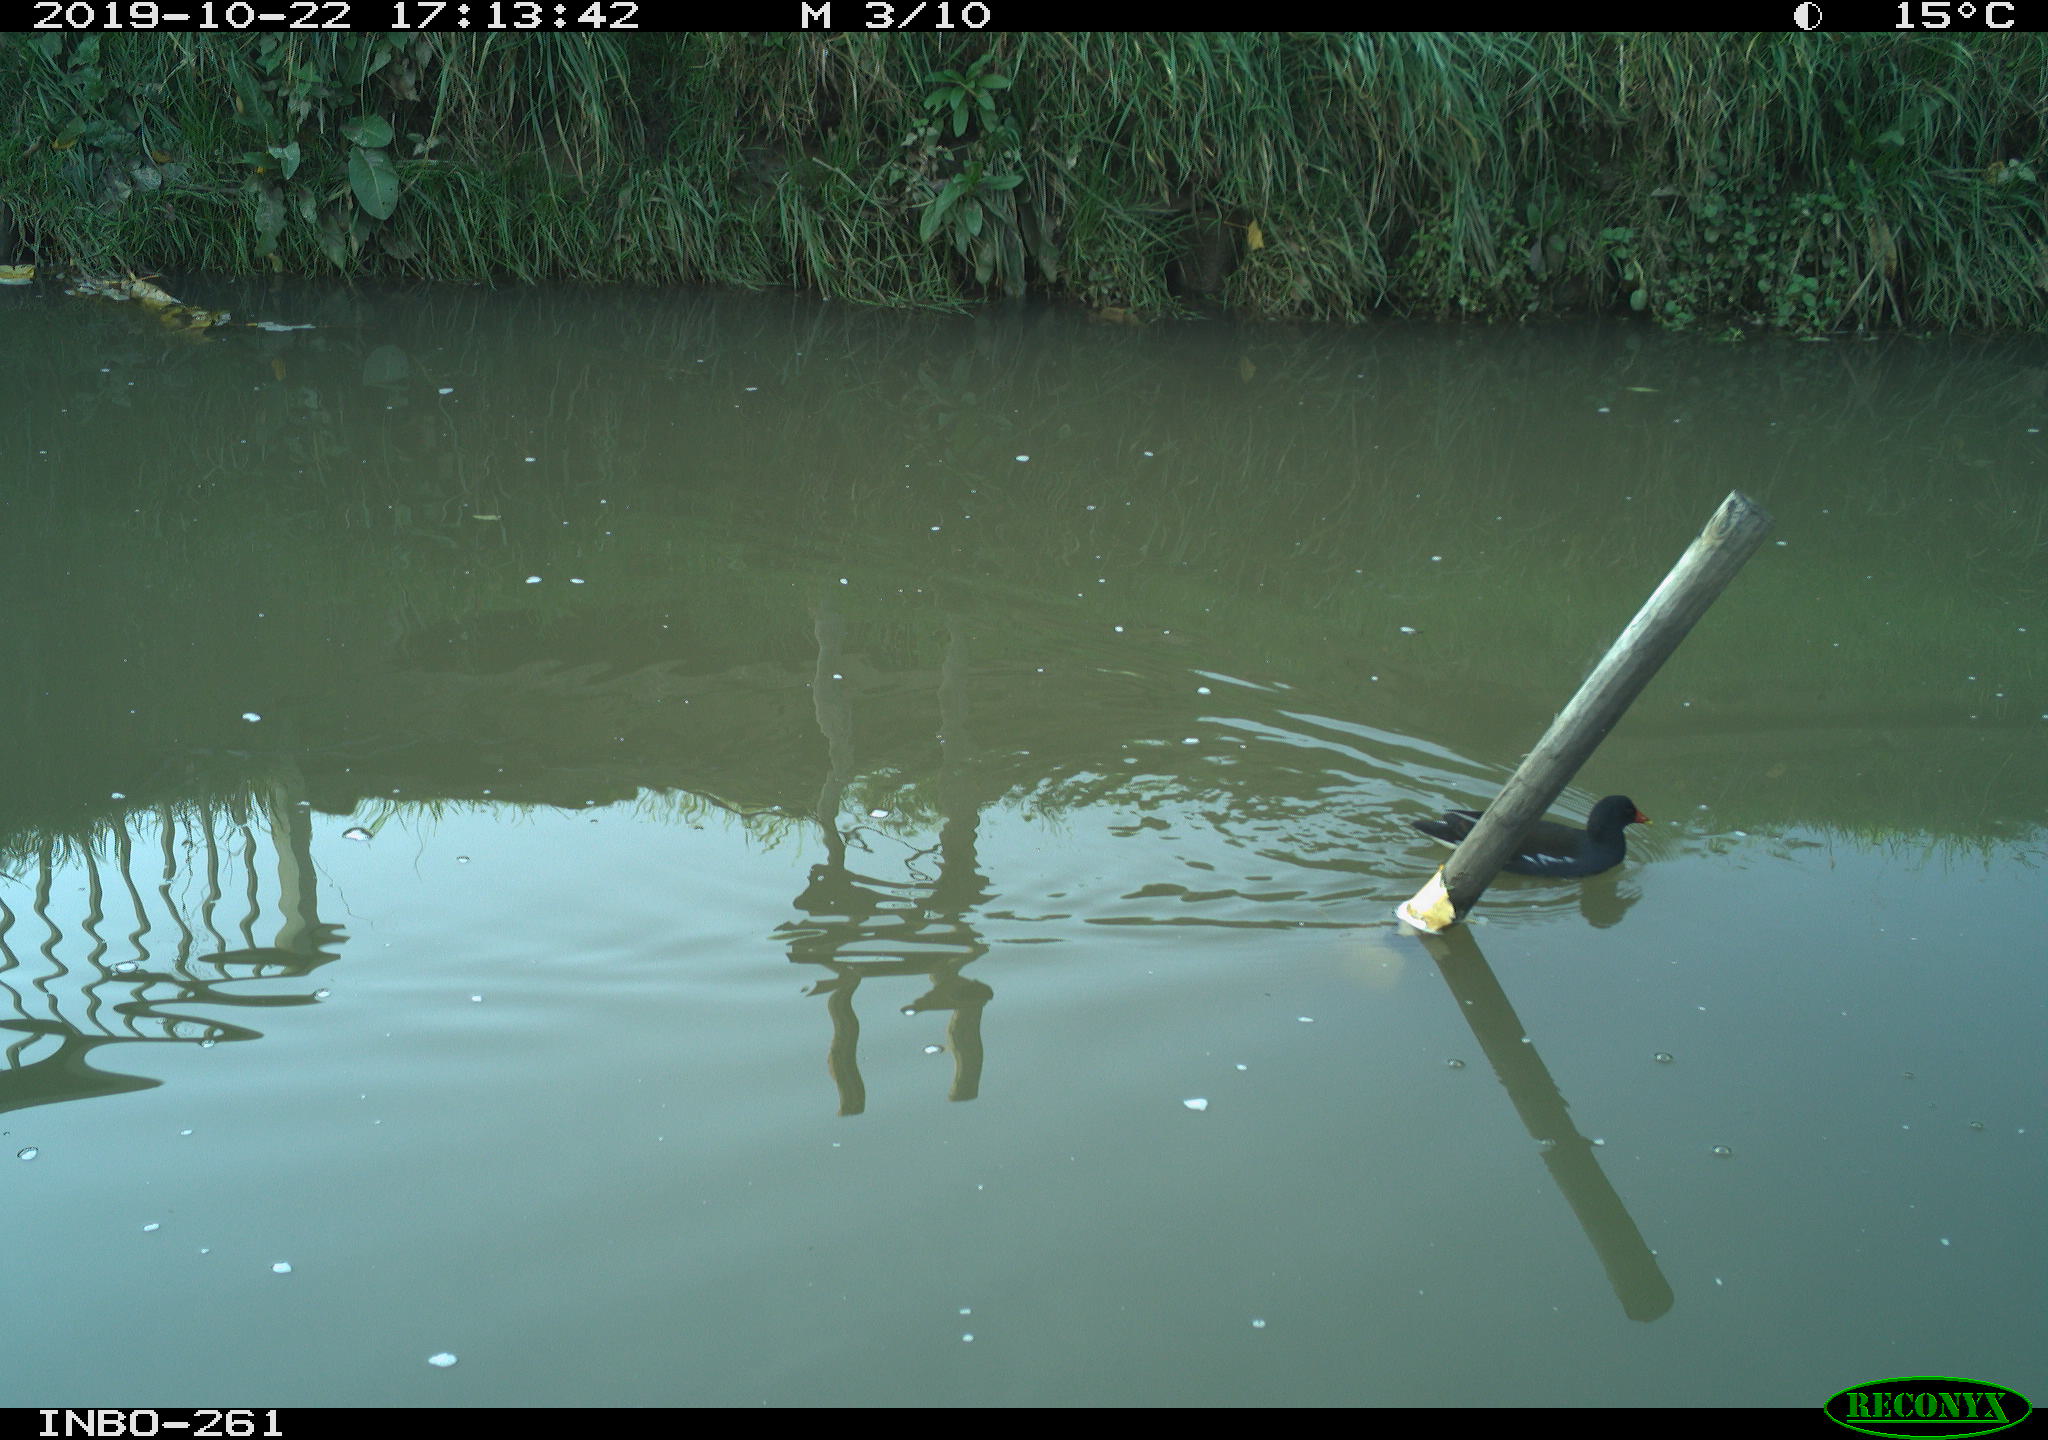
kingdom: Animalia
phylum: Chordata
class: Aves
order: Gruiformes
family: Rallidae
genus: Gallinula
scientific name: Gallinula chloropus
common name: Common moorhen
